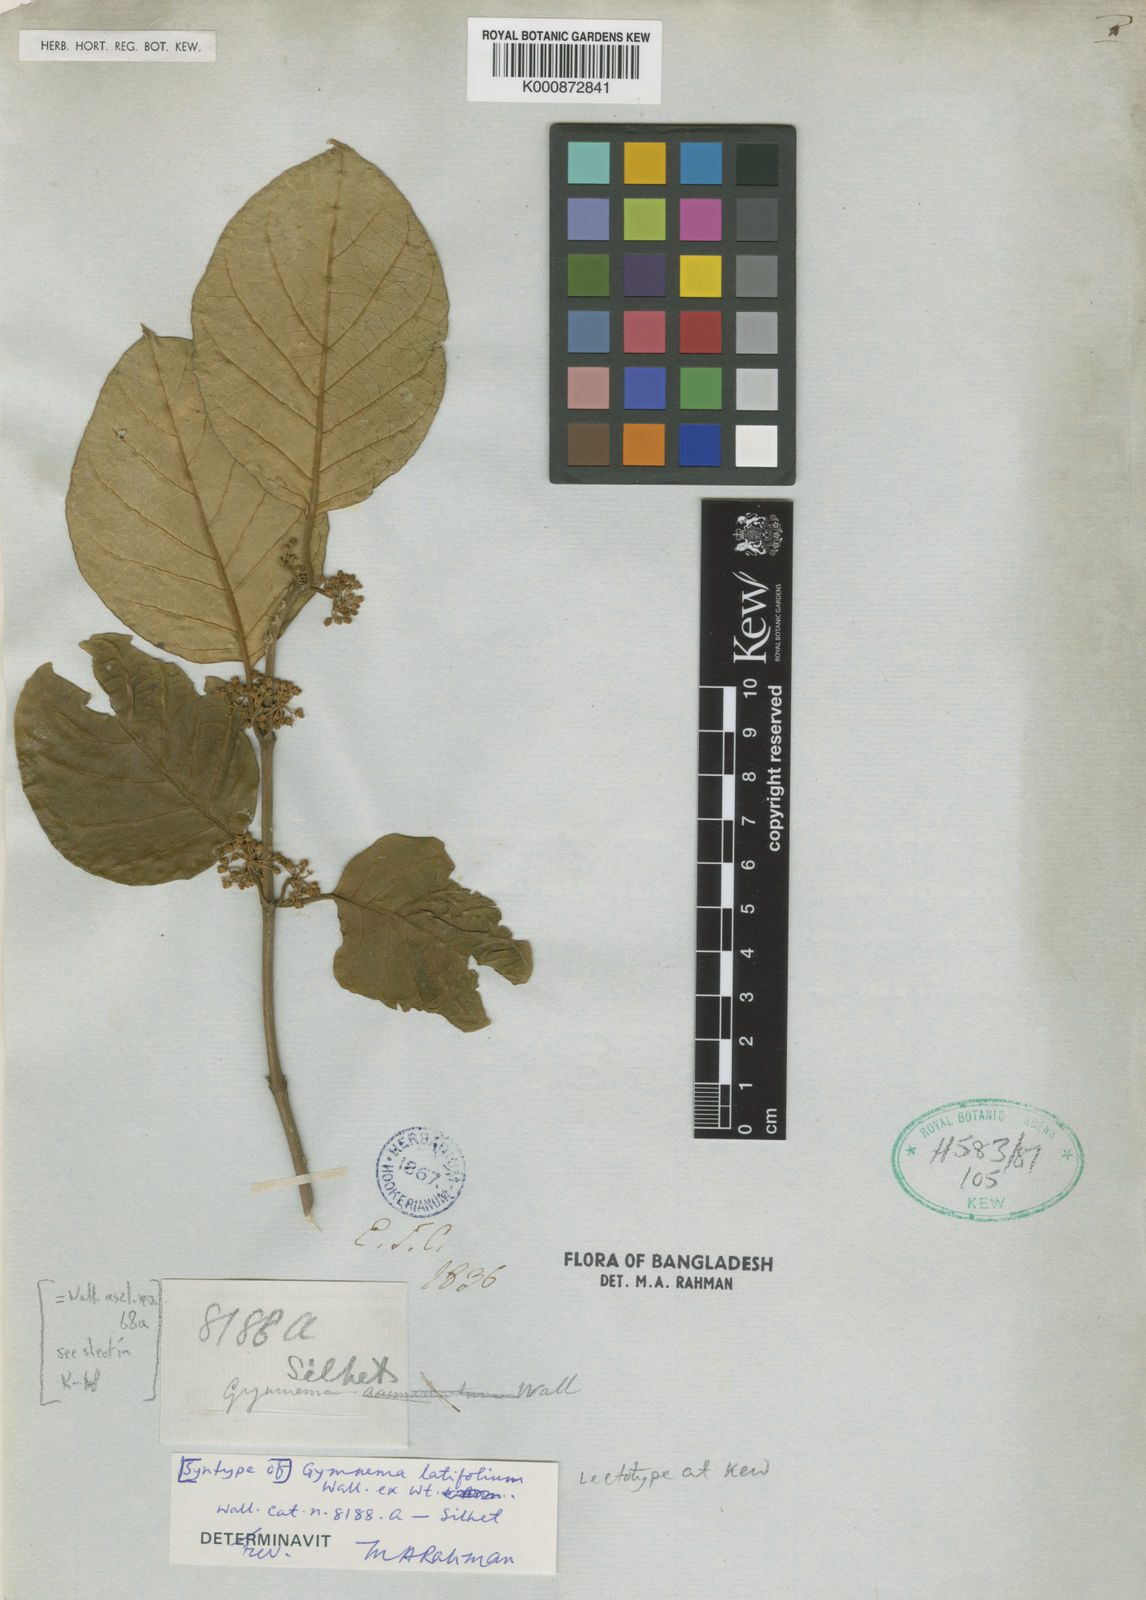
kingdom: Plantae
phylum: Tracheophyta
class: Magnoliopsida
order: Gentianales
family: Apocynaceae
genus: Gymnema
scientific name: Gymnema latifolium
